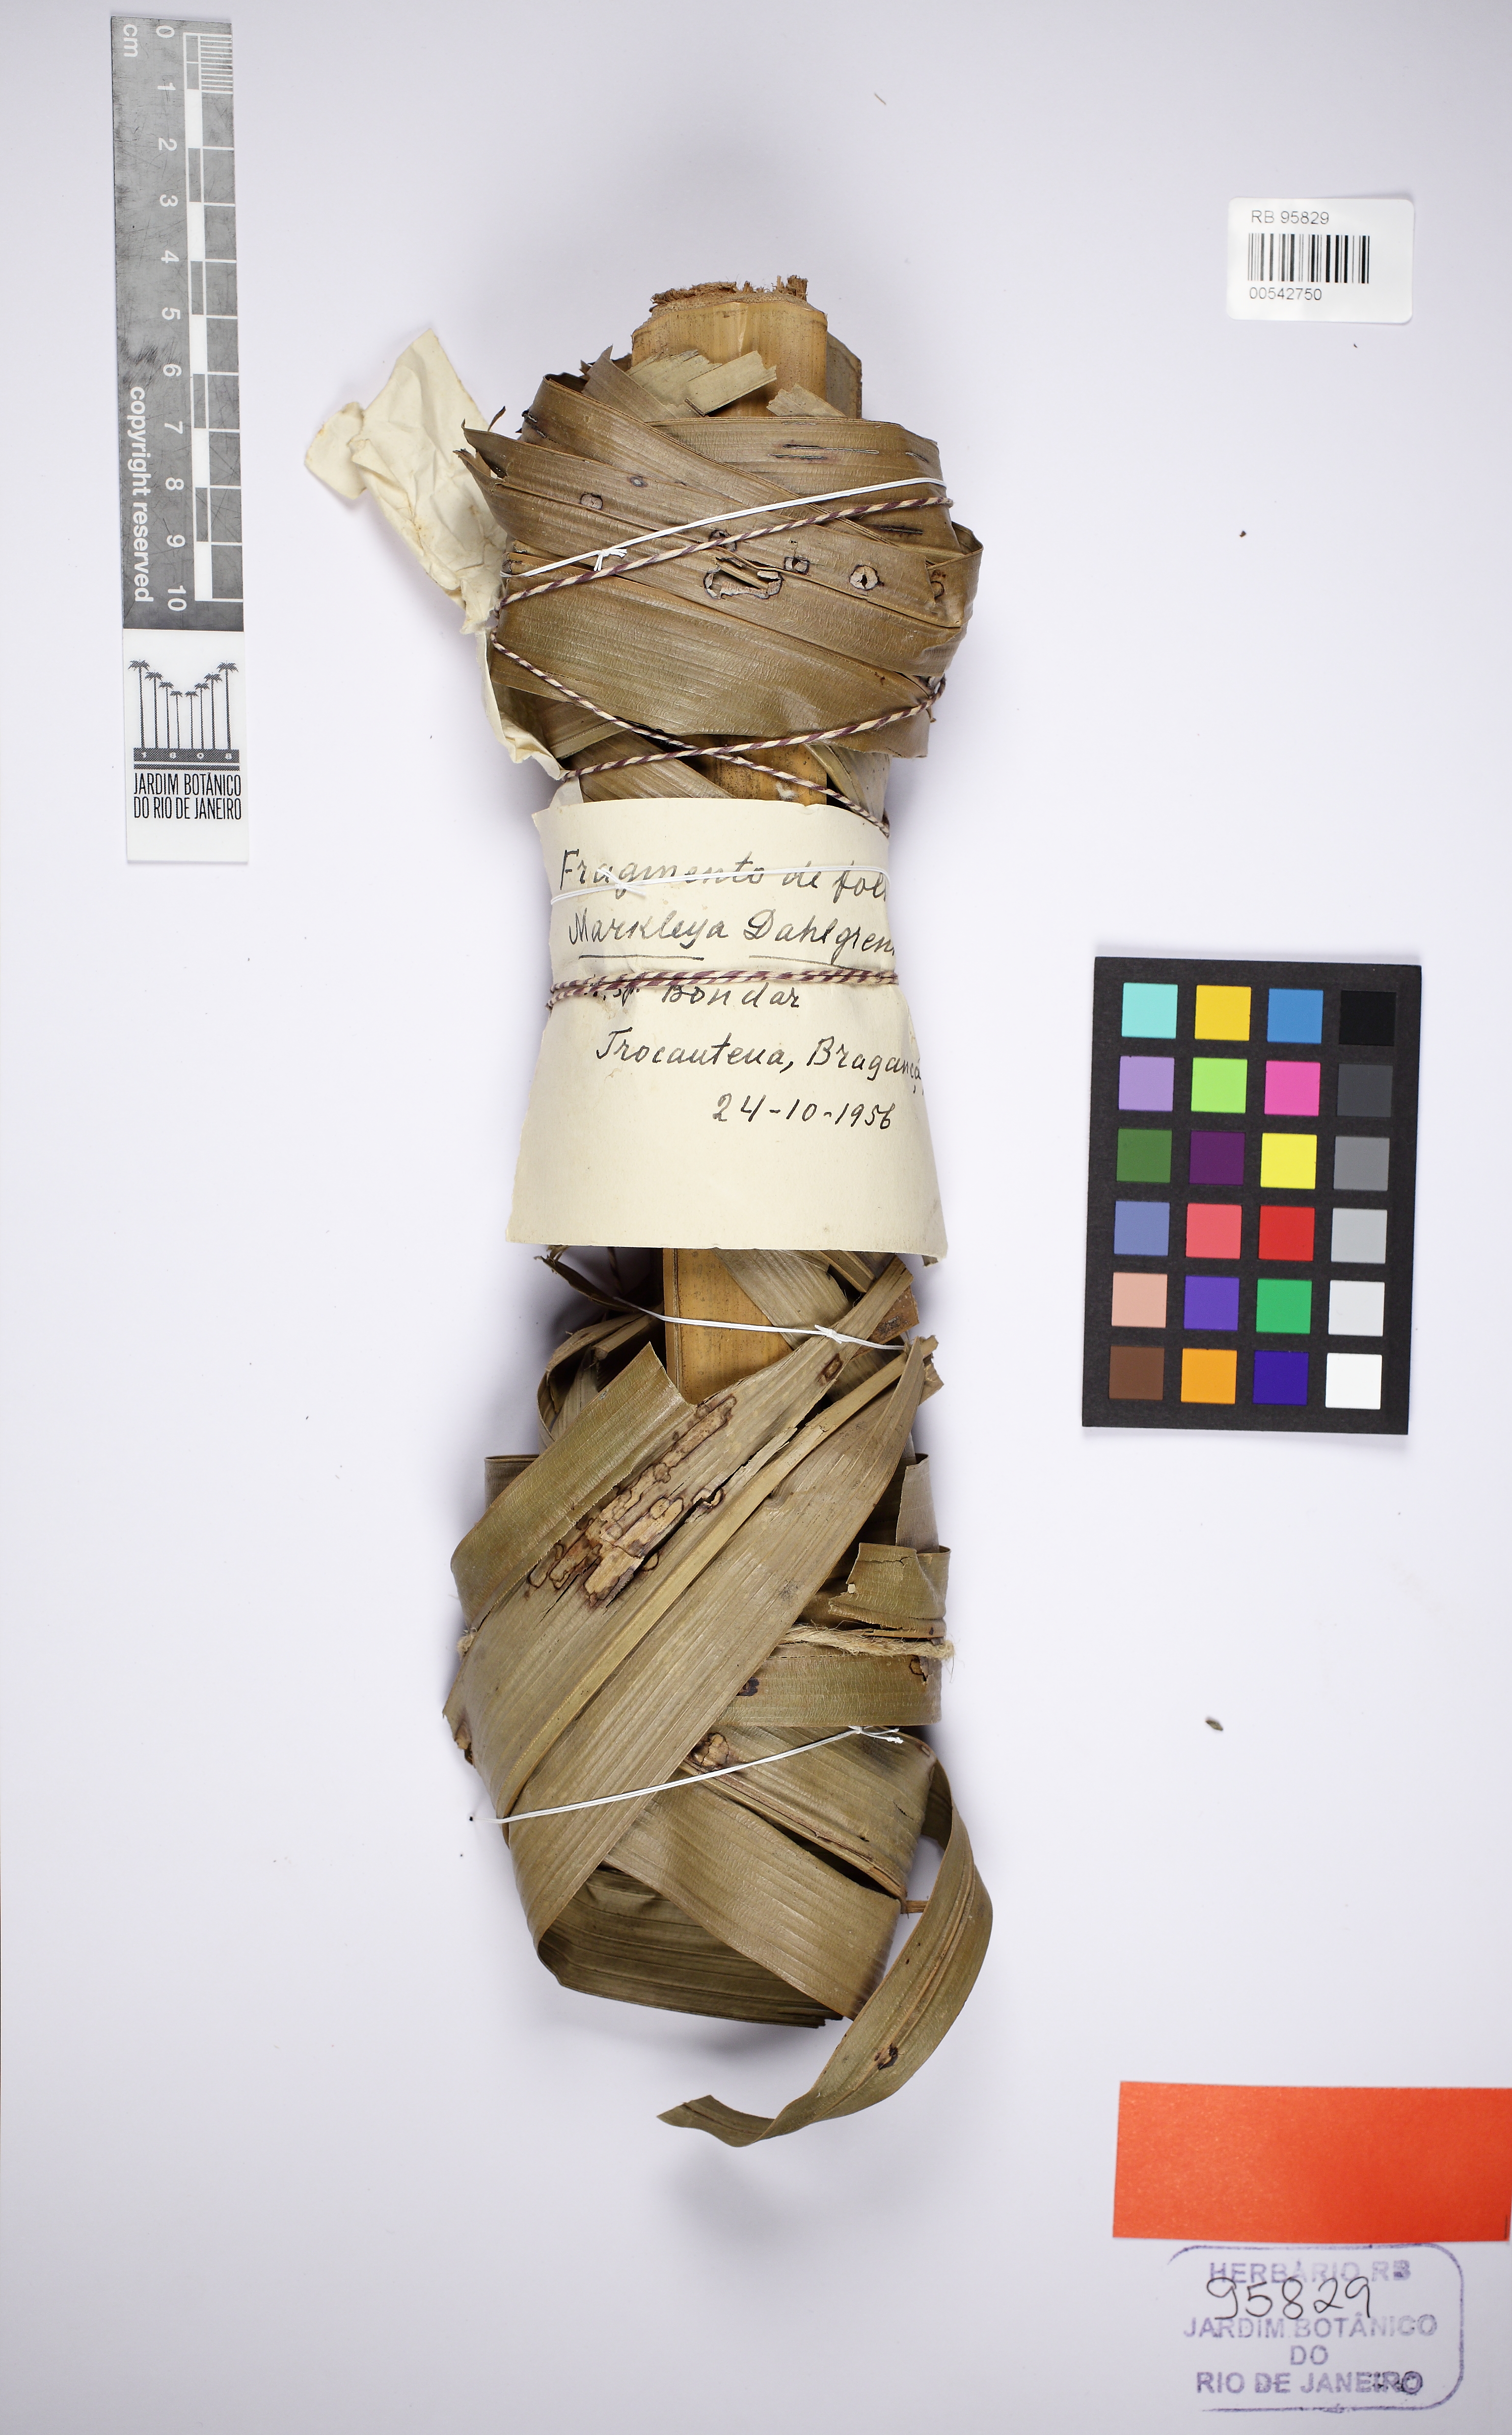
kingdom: Plantae
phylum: Tracheophyta
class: Liliopsida
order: Arecales
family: Arecaceae
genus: Attalea
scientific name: Attalea dahlgreniana
